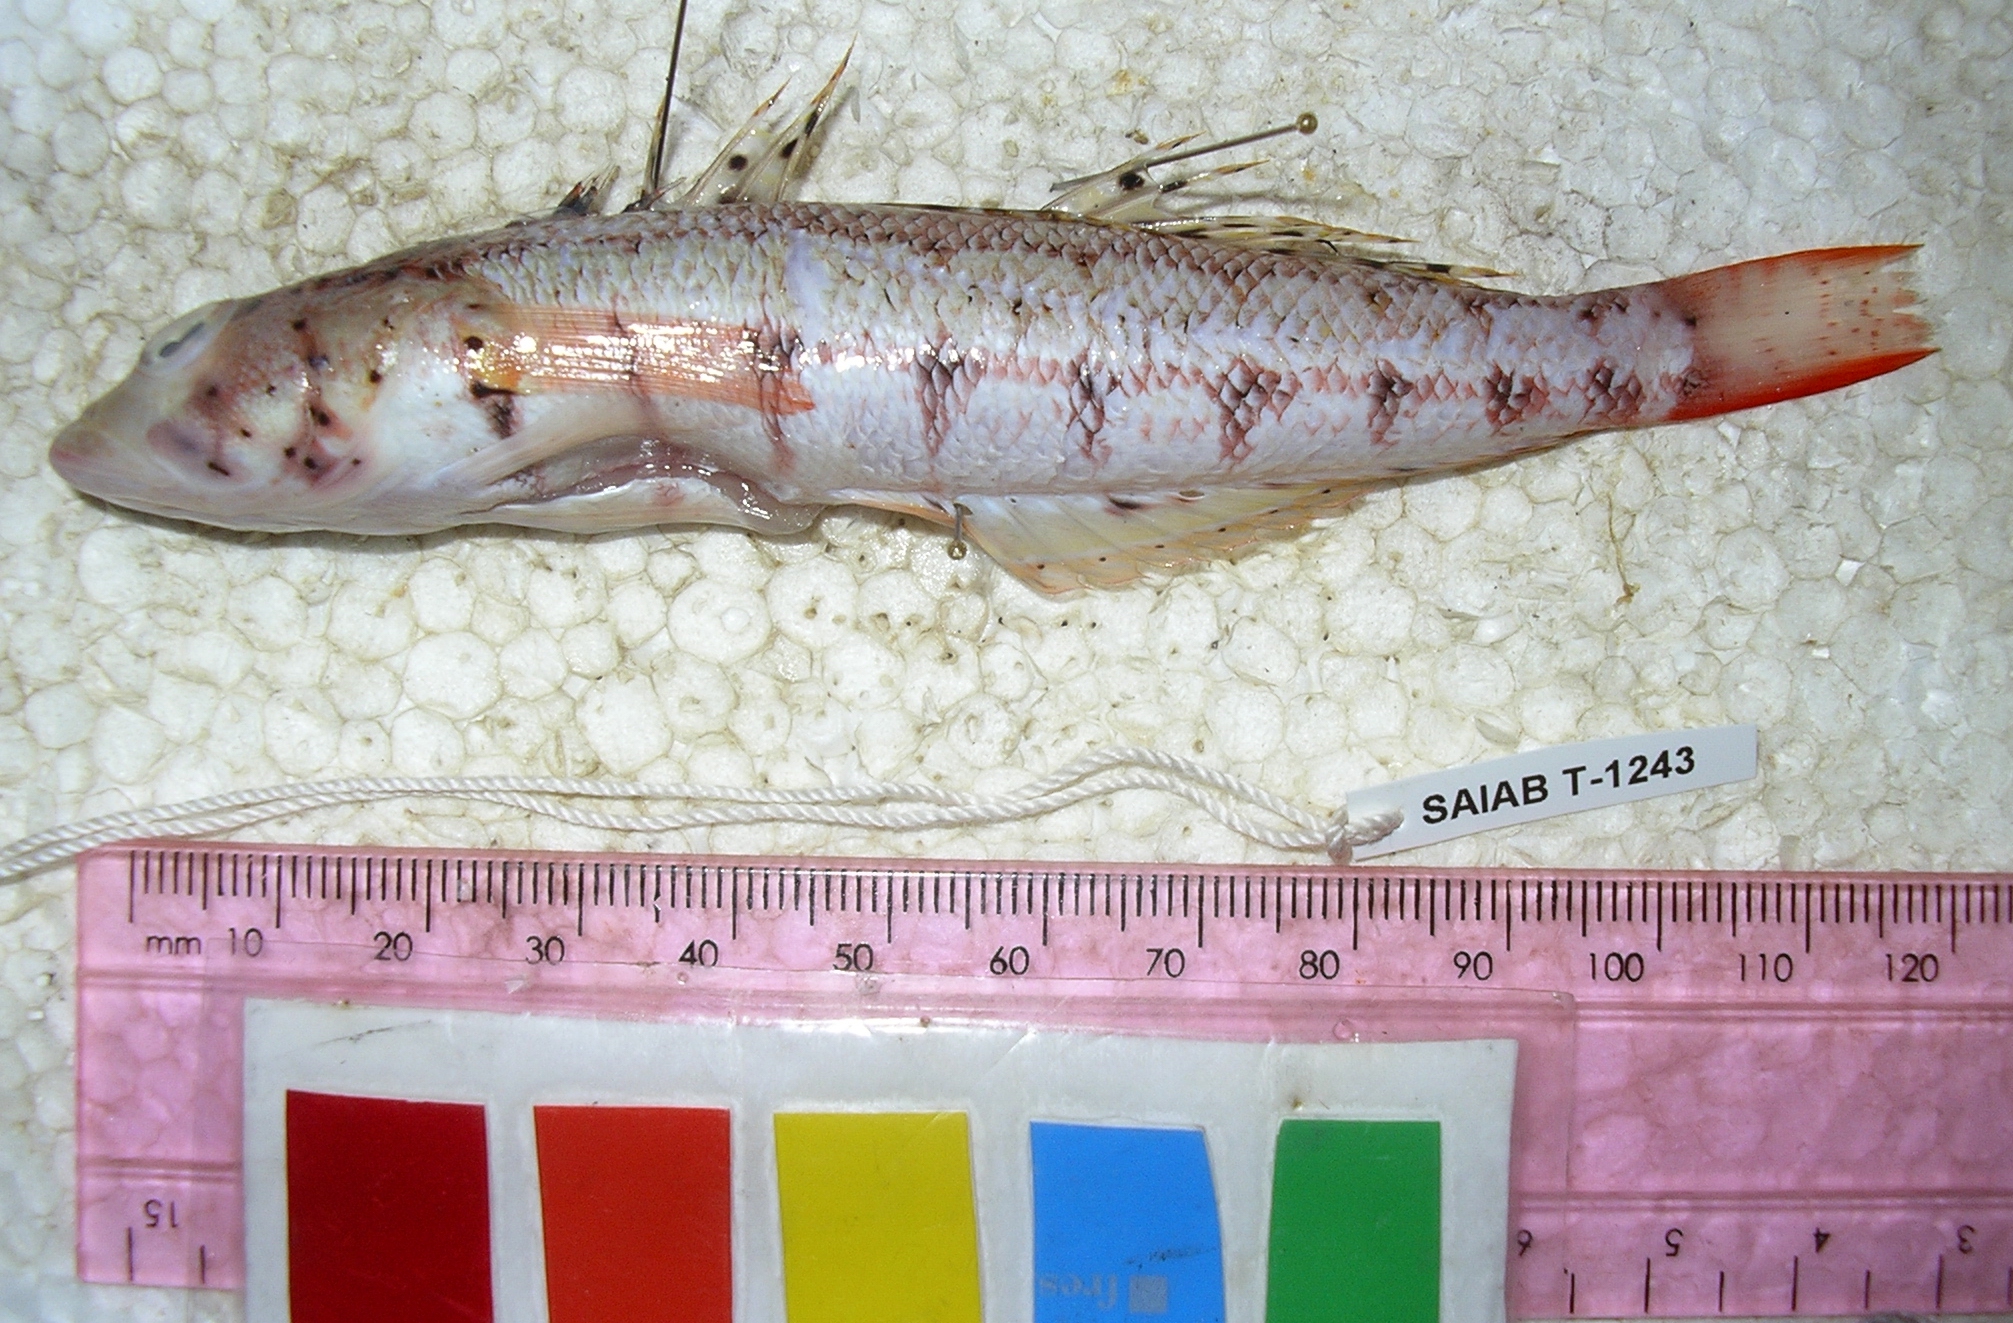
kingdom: Animalia
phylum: Chordata
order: Perciformes
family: Pinguipedidae
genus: Parapercis
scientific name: Parapercis punctulata
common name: Spotted sandperch
